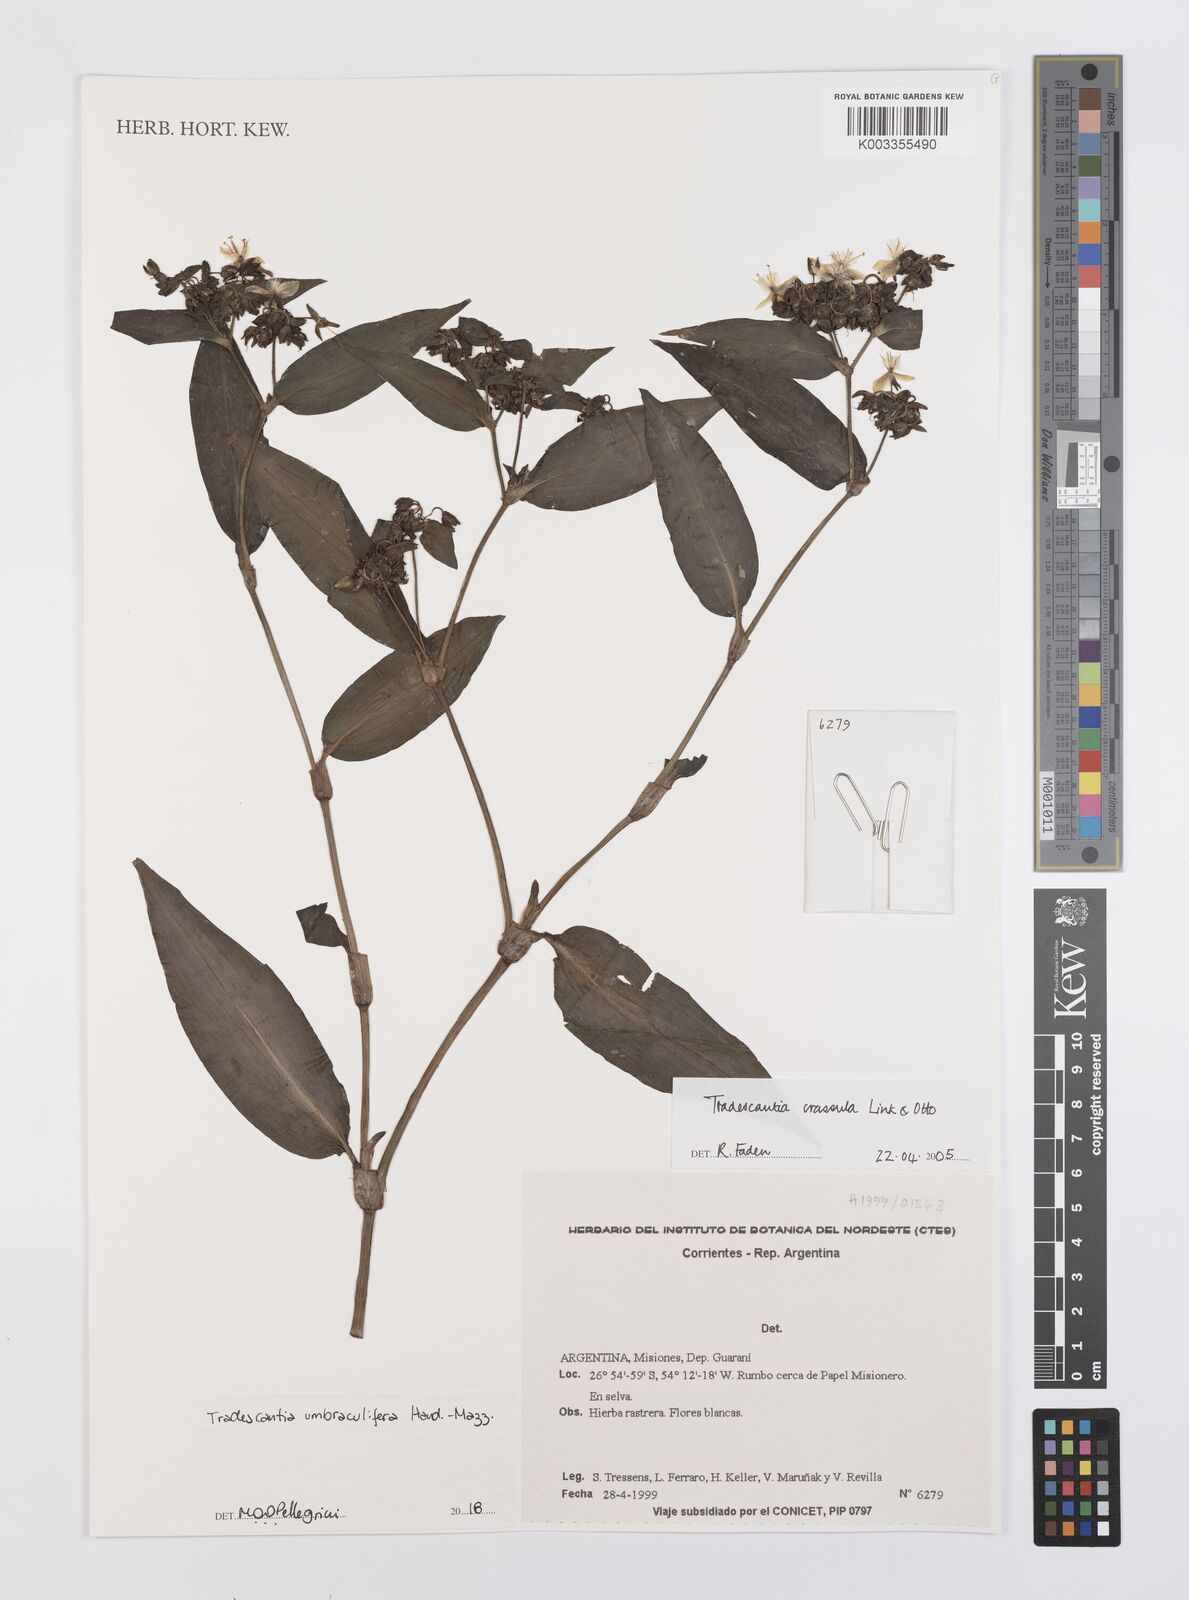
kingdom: Plantae
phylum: Tracheophyta
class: Liliopsida
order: Commelinales
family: Commelinaceae
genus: Tradescantia
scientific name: Tradescantia umbraculifera
